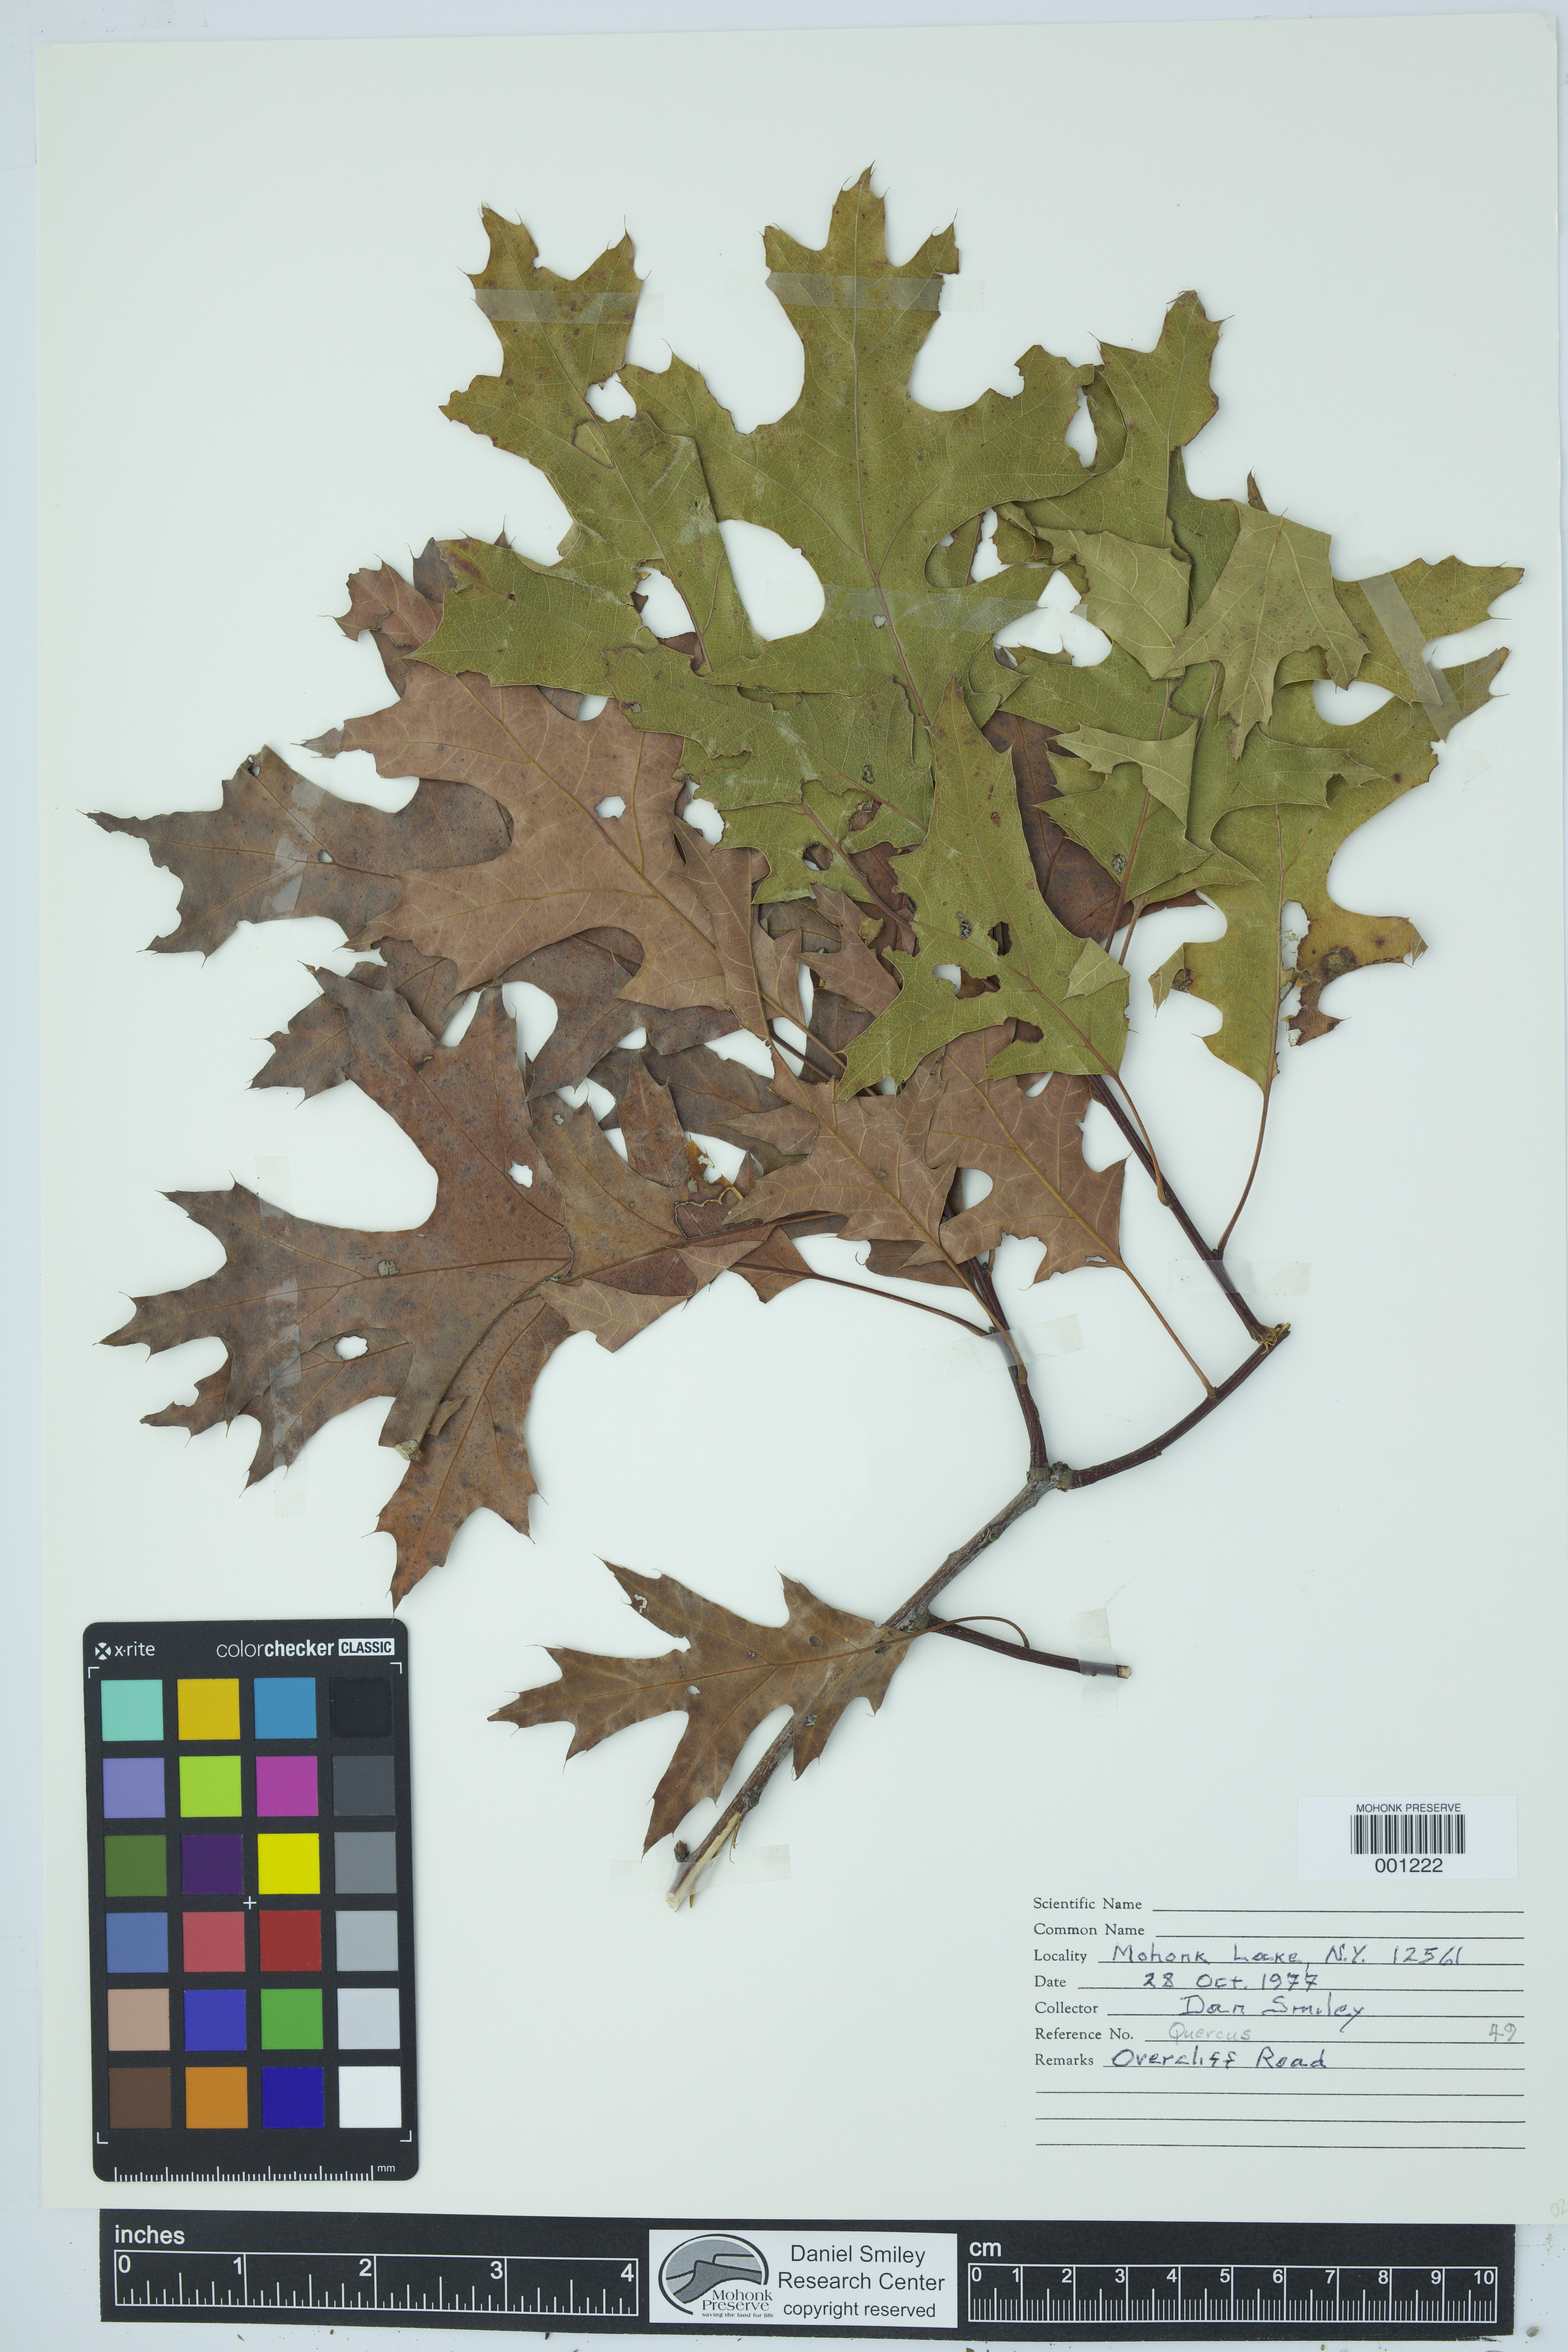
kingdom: Plantae
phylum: Tracheophyta
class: Magnoliopsida
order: Fagales
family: Fagaceae
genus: Quercus
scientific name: Quercus
